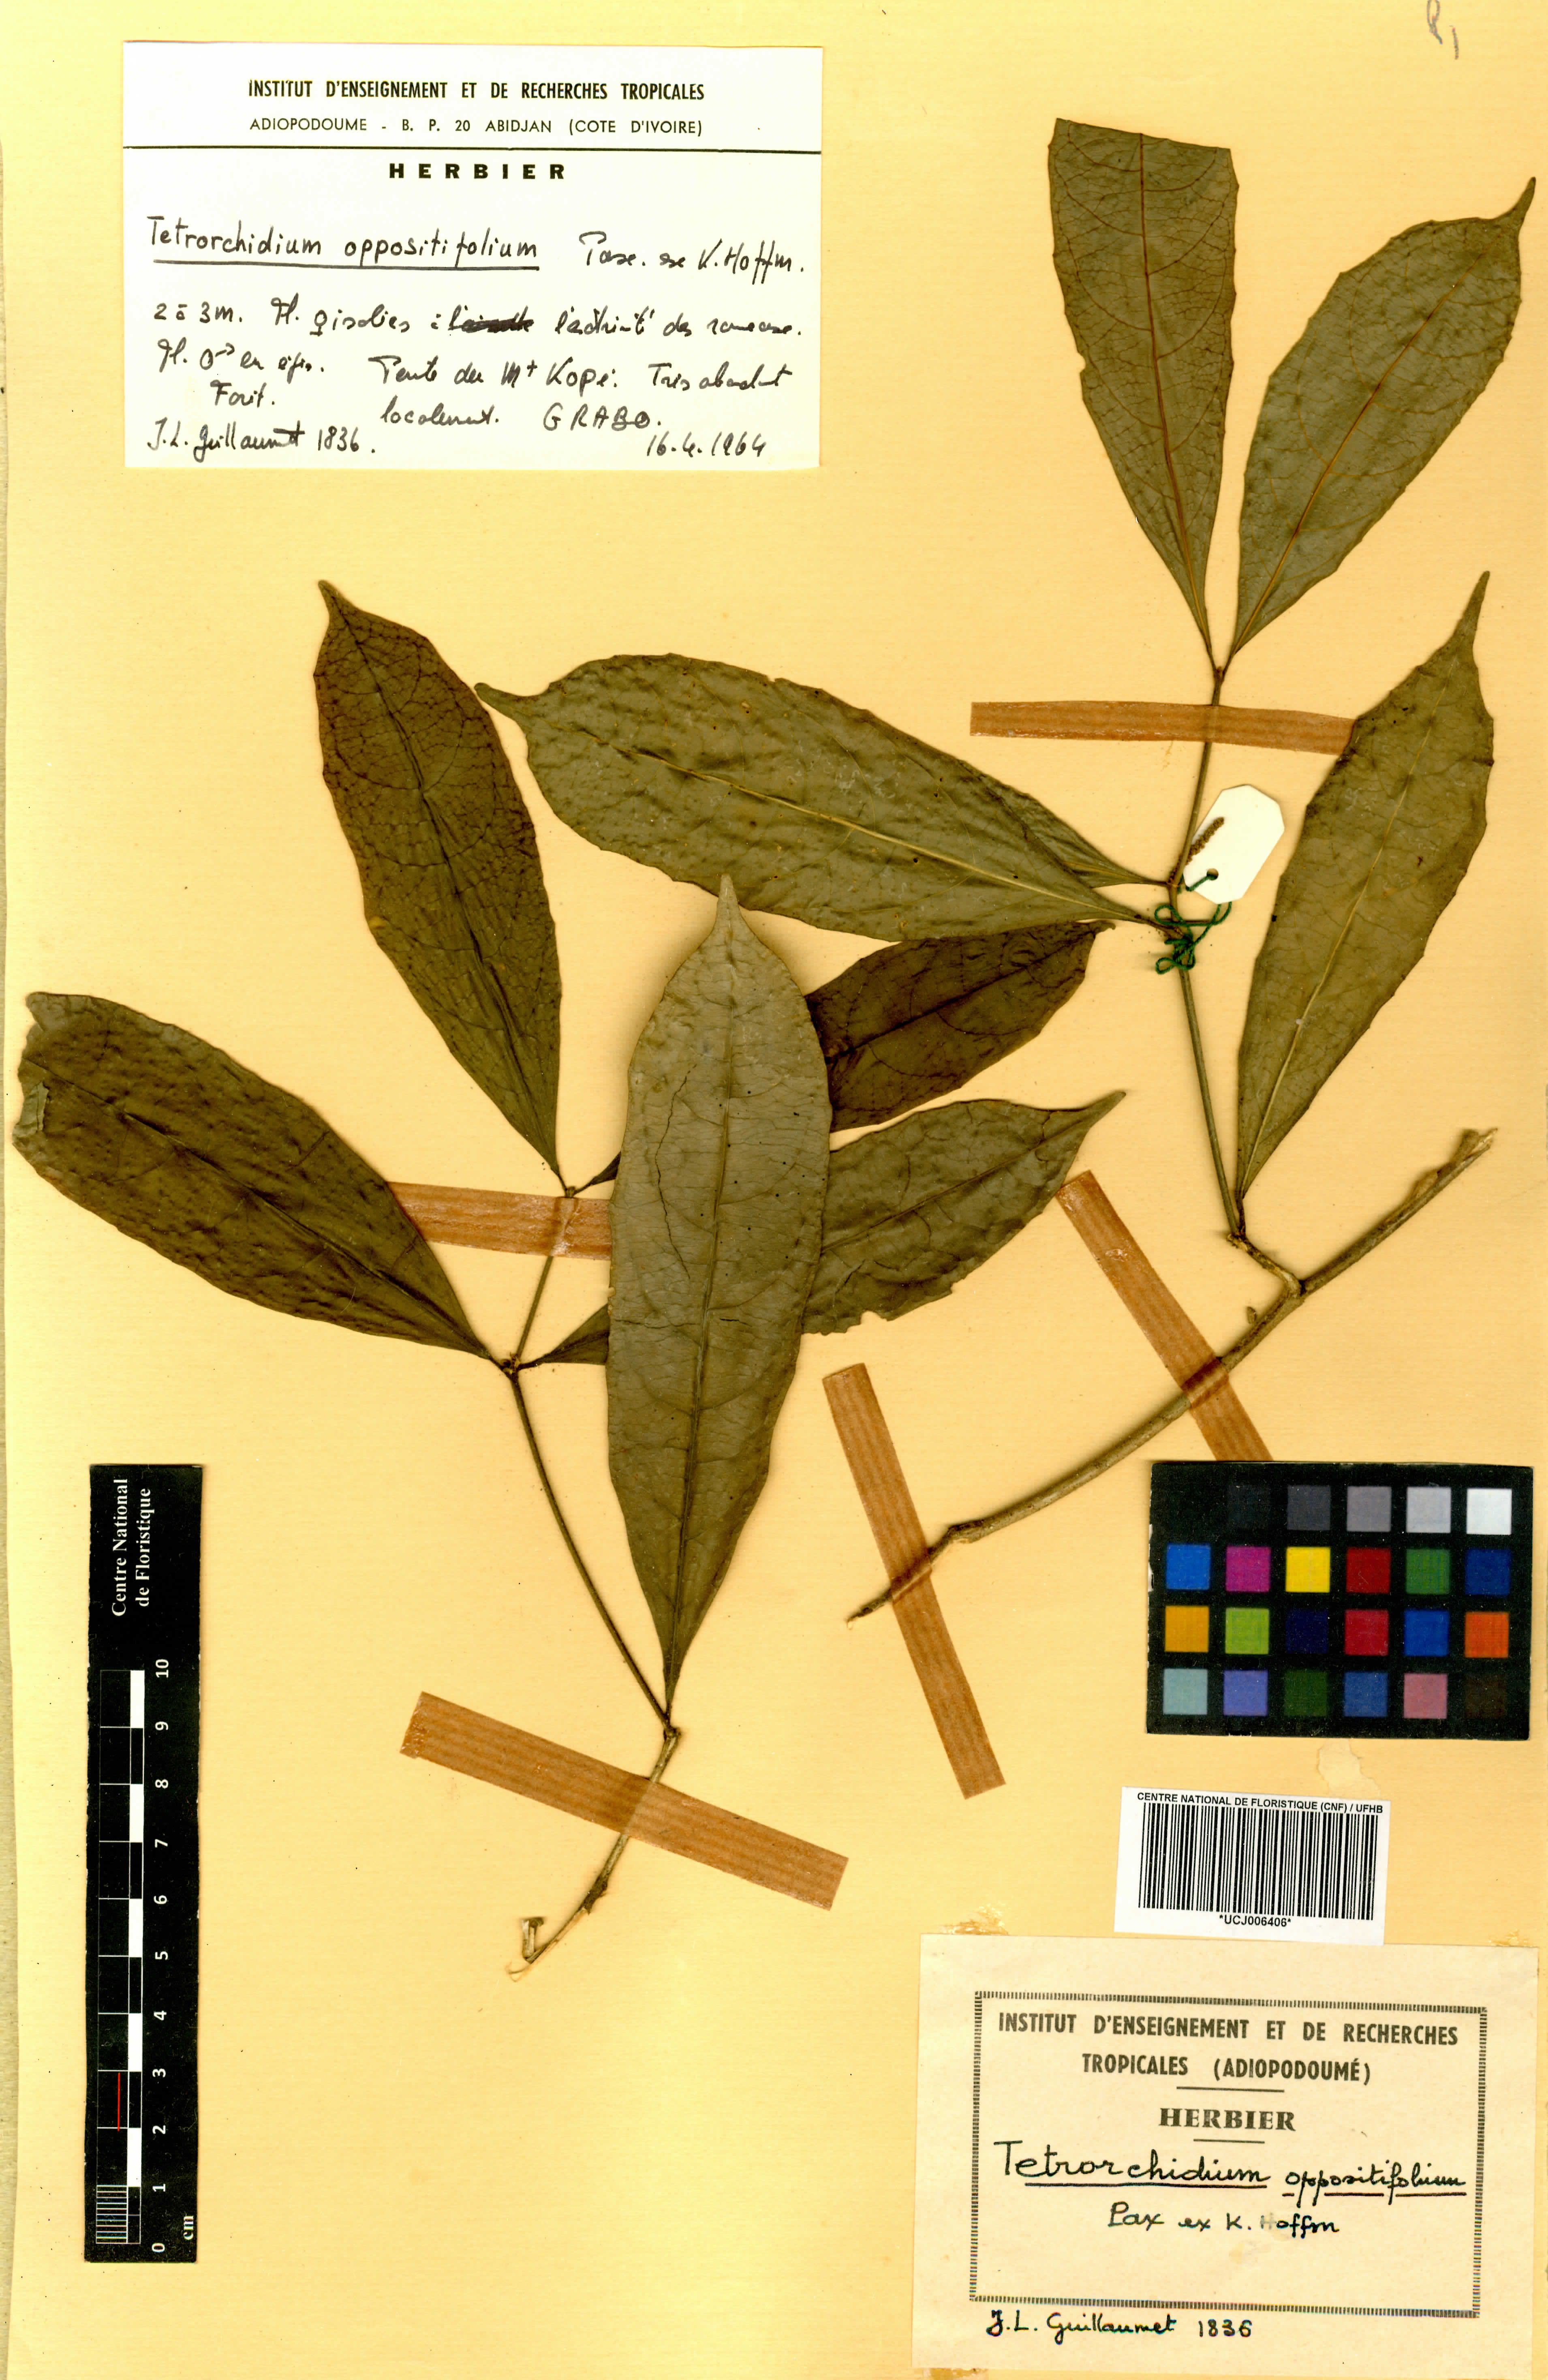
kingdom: Plantae
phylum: Tracheophyta
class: Magnoliopsida
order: Malpighiales
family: Euphorbiaceae
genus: Tetrorchidium
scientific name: Tetrorchidium oppositifolium
